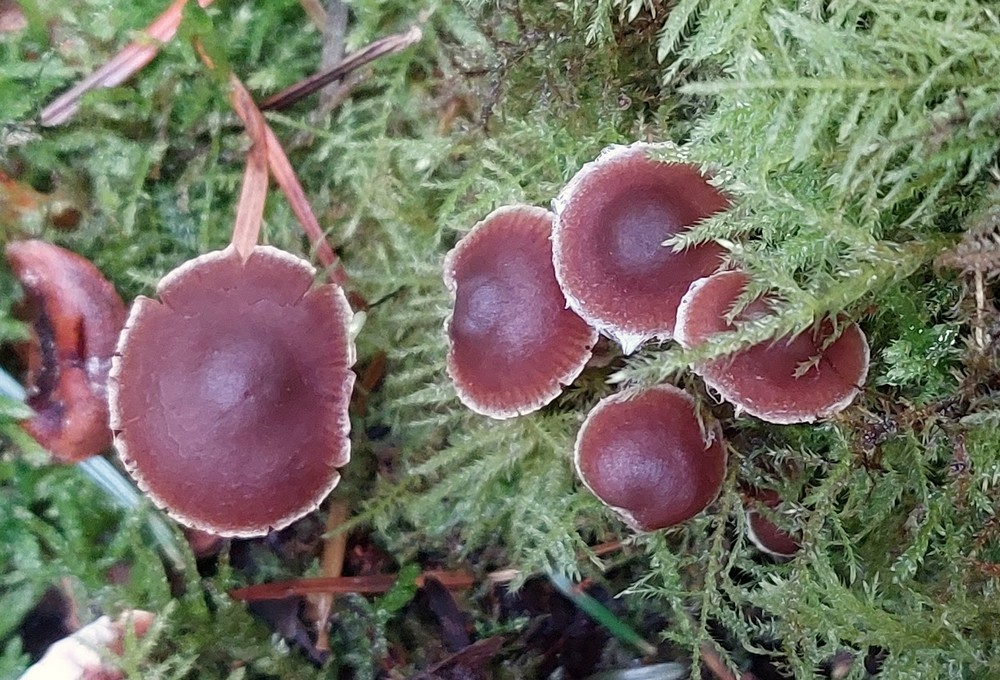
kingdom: Fungi
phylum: Basidiomycota
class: Agaricomycetes
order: Agaricales
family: Cortinariaceae
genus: Cortinarius
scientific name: Cortinarius
